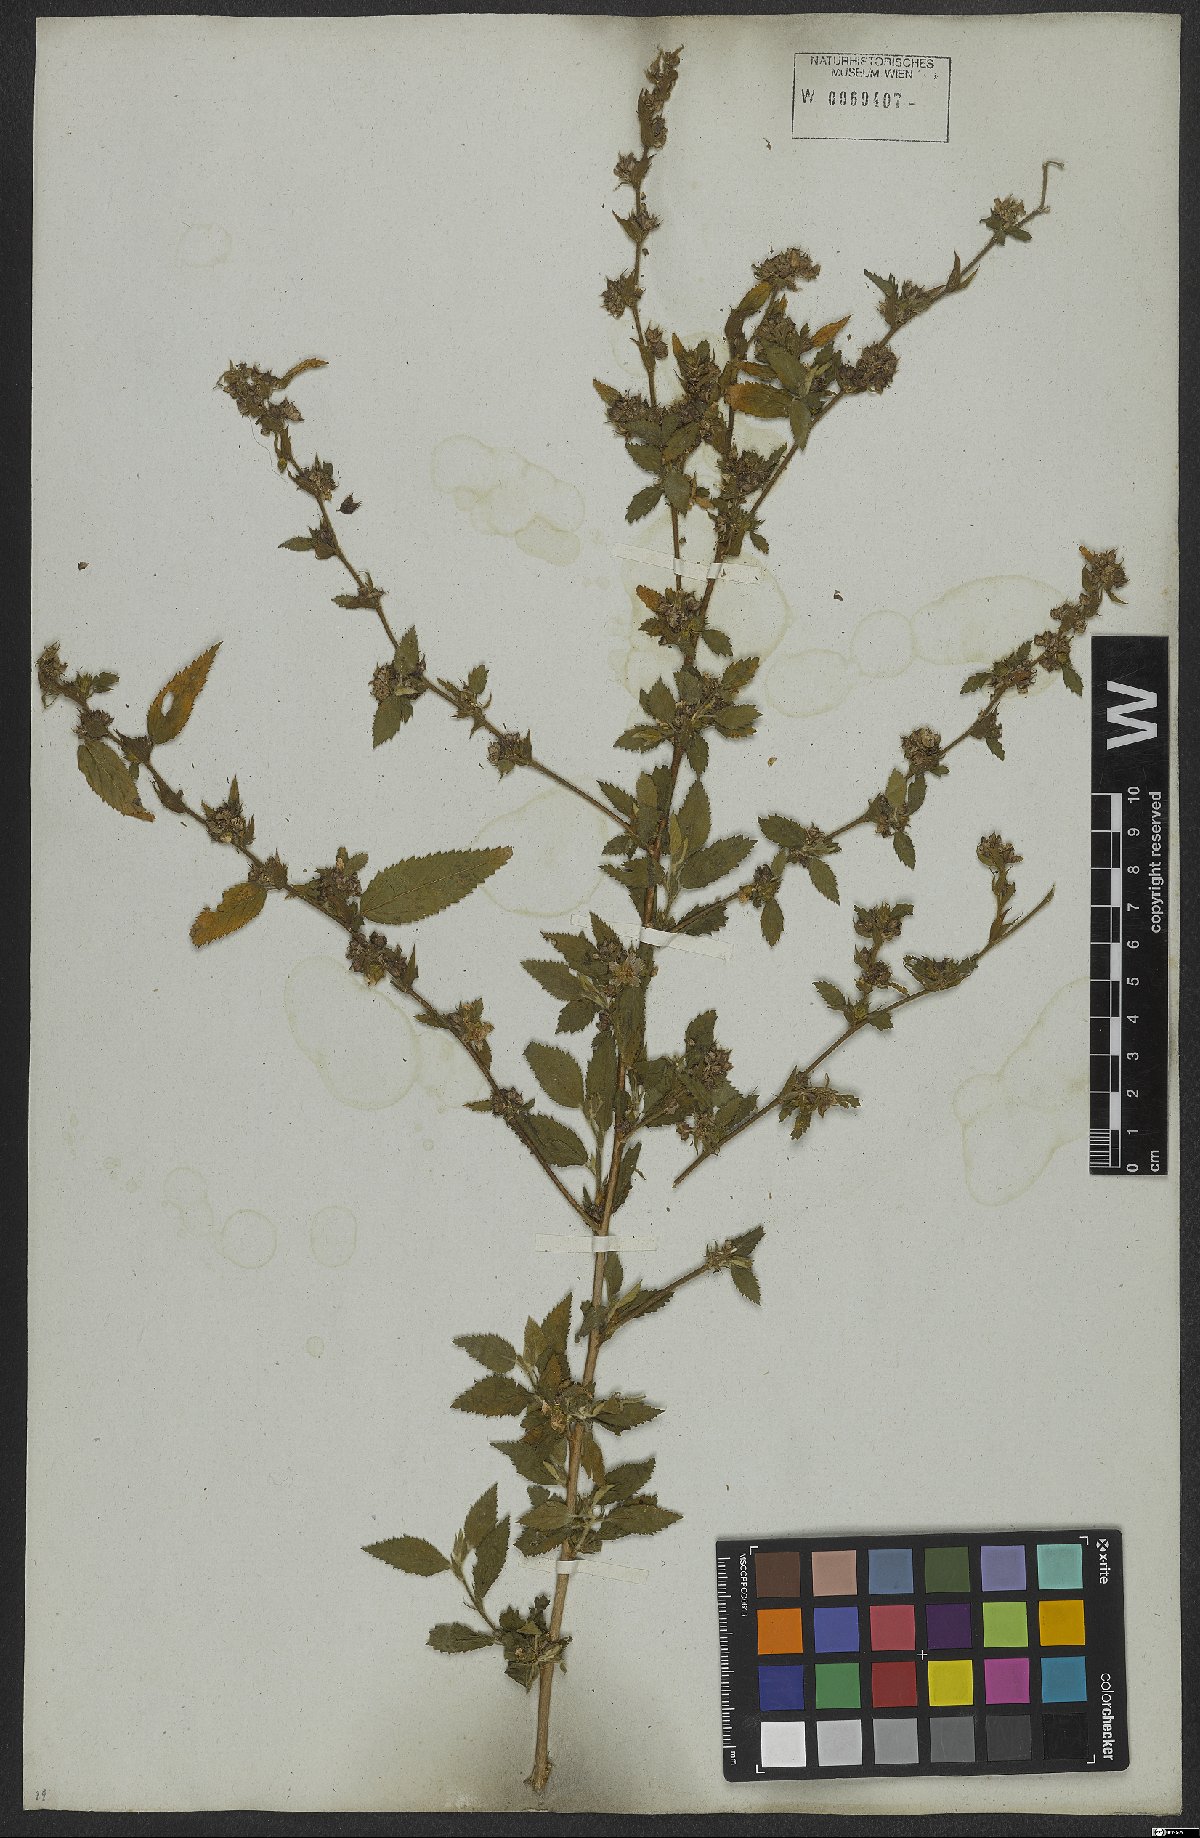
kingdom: Plantae
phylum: Tracheophyta
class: Magnoliopsida
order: Malvales
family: Malvaceae
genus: Sida
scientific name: Sida acuta
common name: Common wireweed
